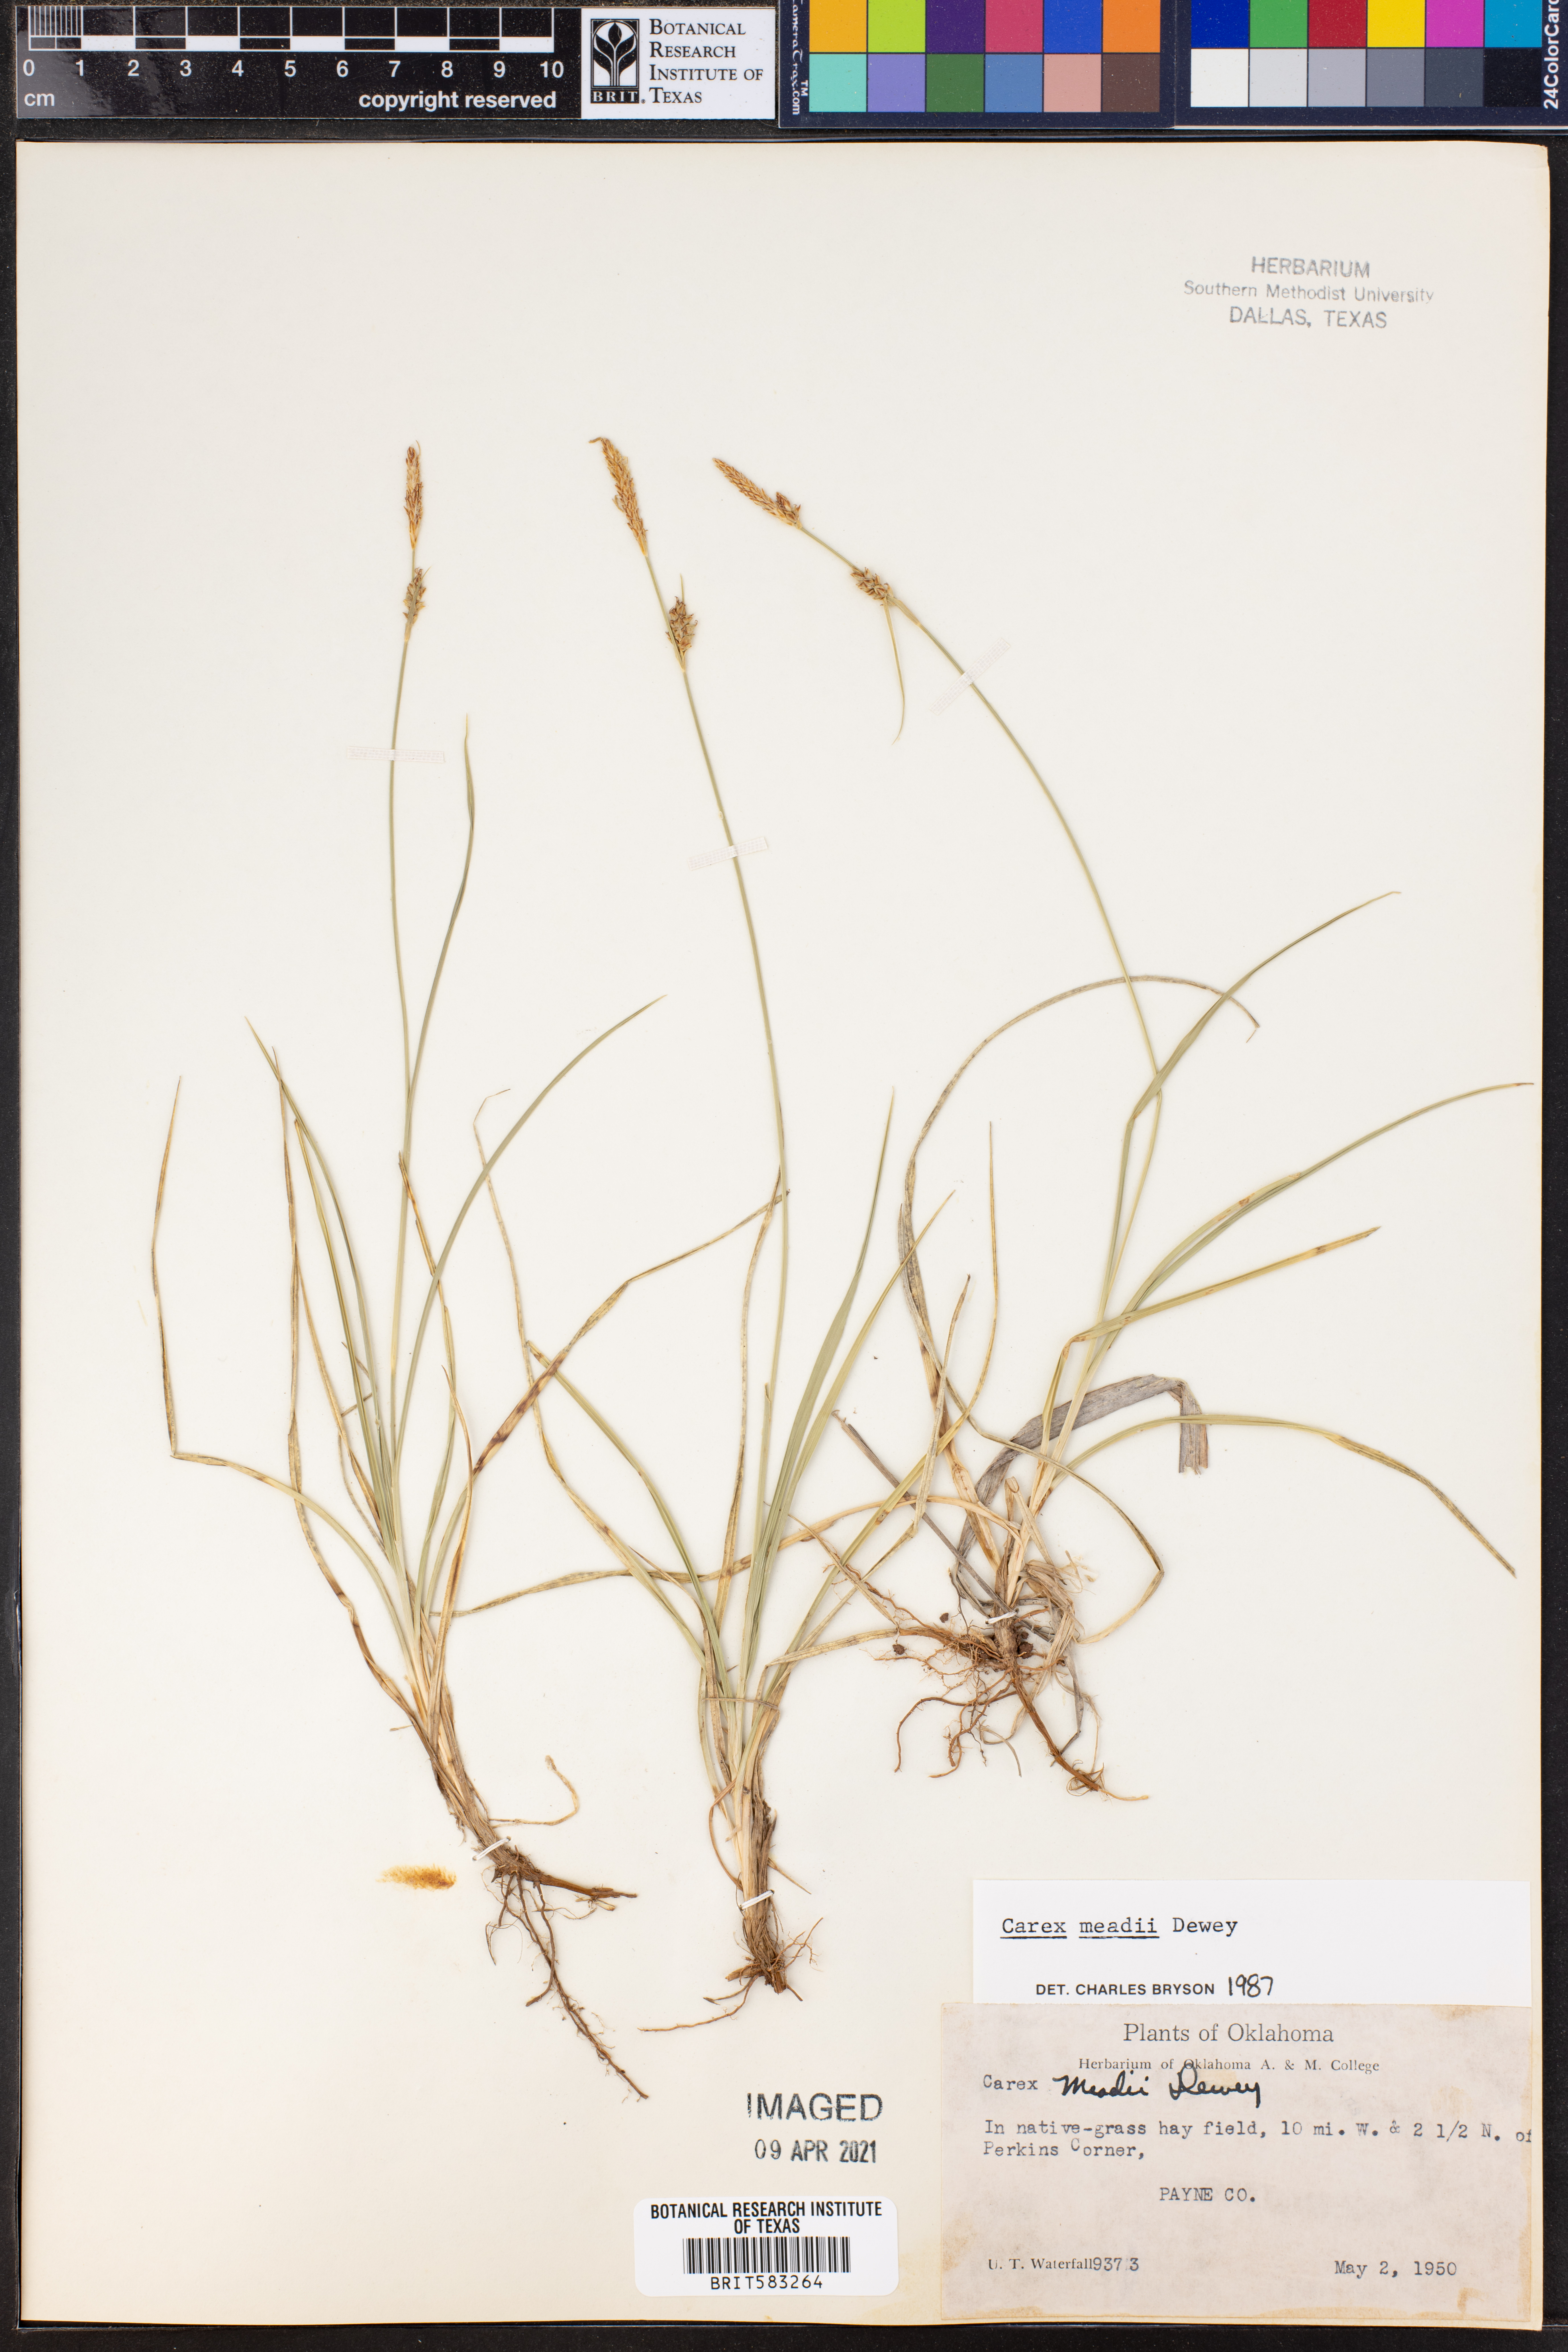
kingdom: Plantae
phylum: Tracheophyta
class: Liliopsida
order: Poales
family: Cyperaceae
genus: Carex
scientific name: Carex meadii
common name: Mead's sedge
